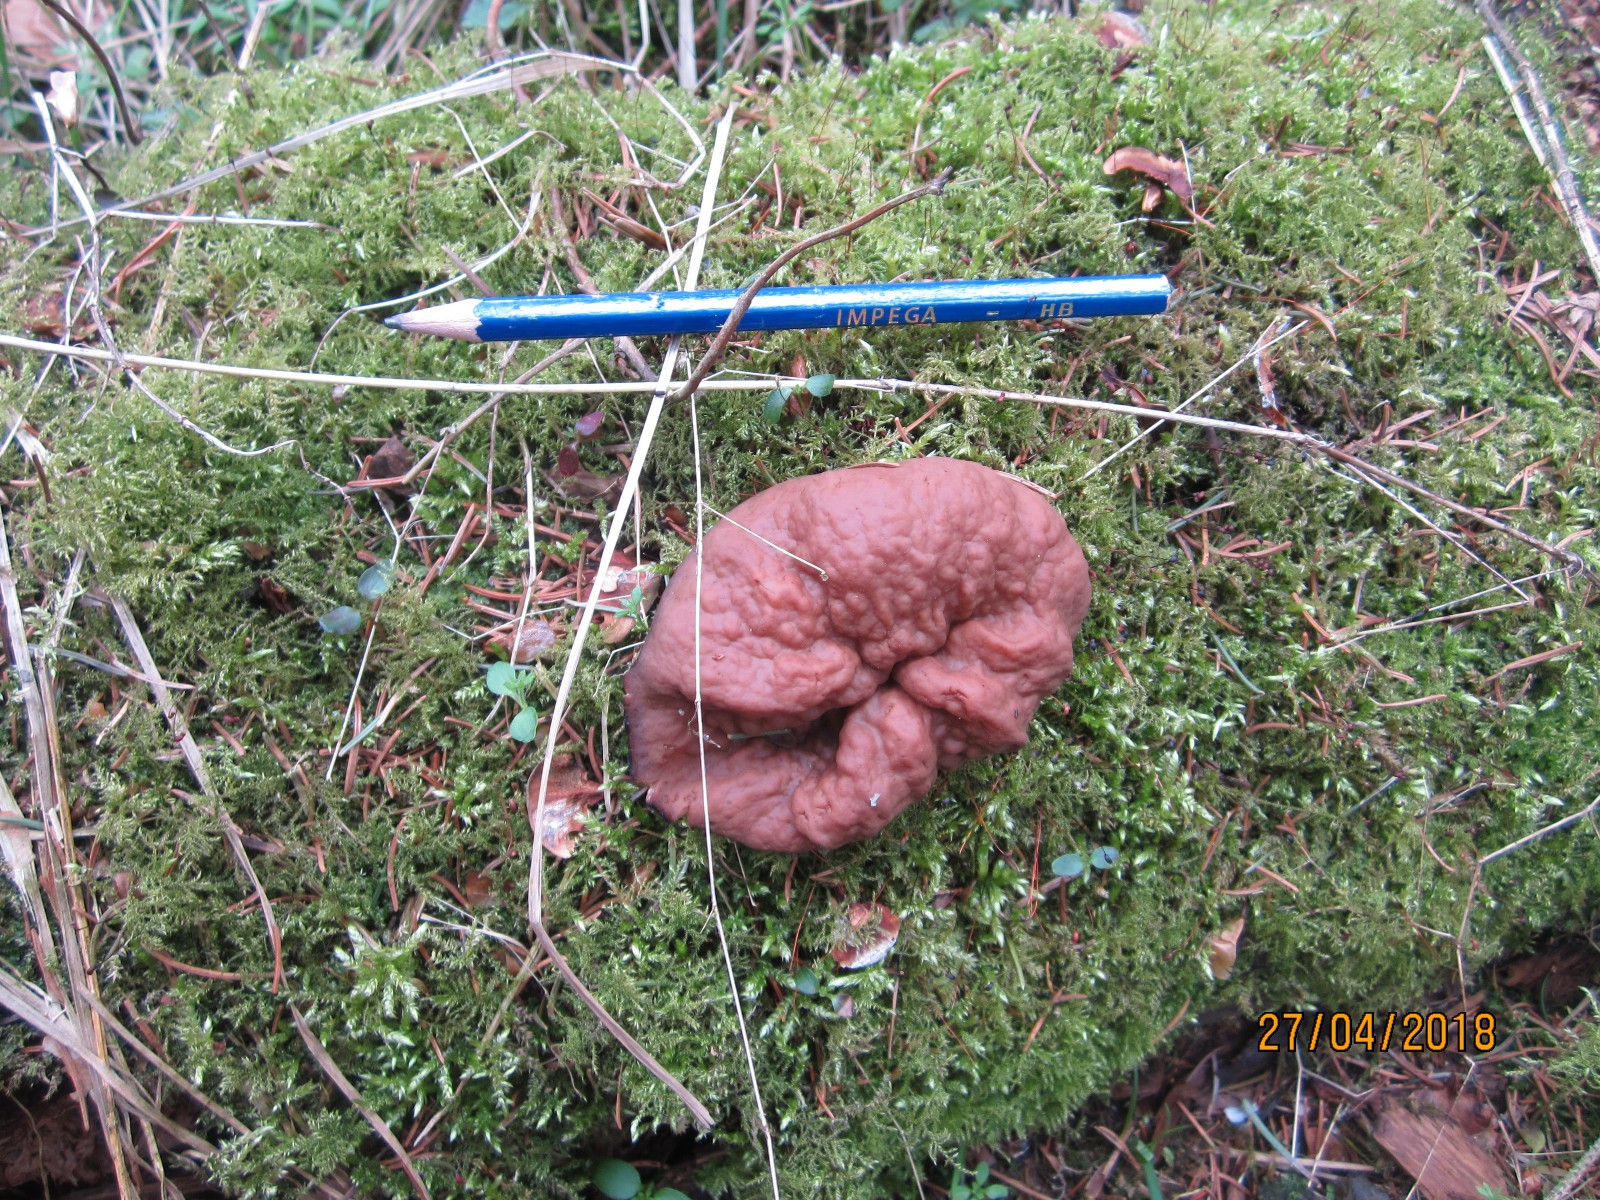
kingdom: Fungi
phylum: Ascomycota
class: Pezizomycetes
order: Pezizales
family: Discinaceae
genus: Discina
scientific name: Discina ancilis
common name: udbredt stenmorkel
